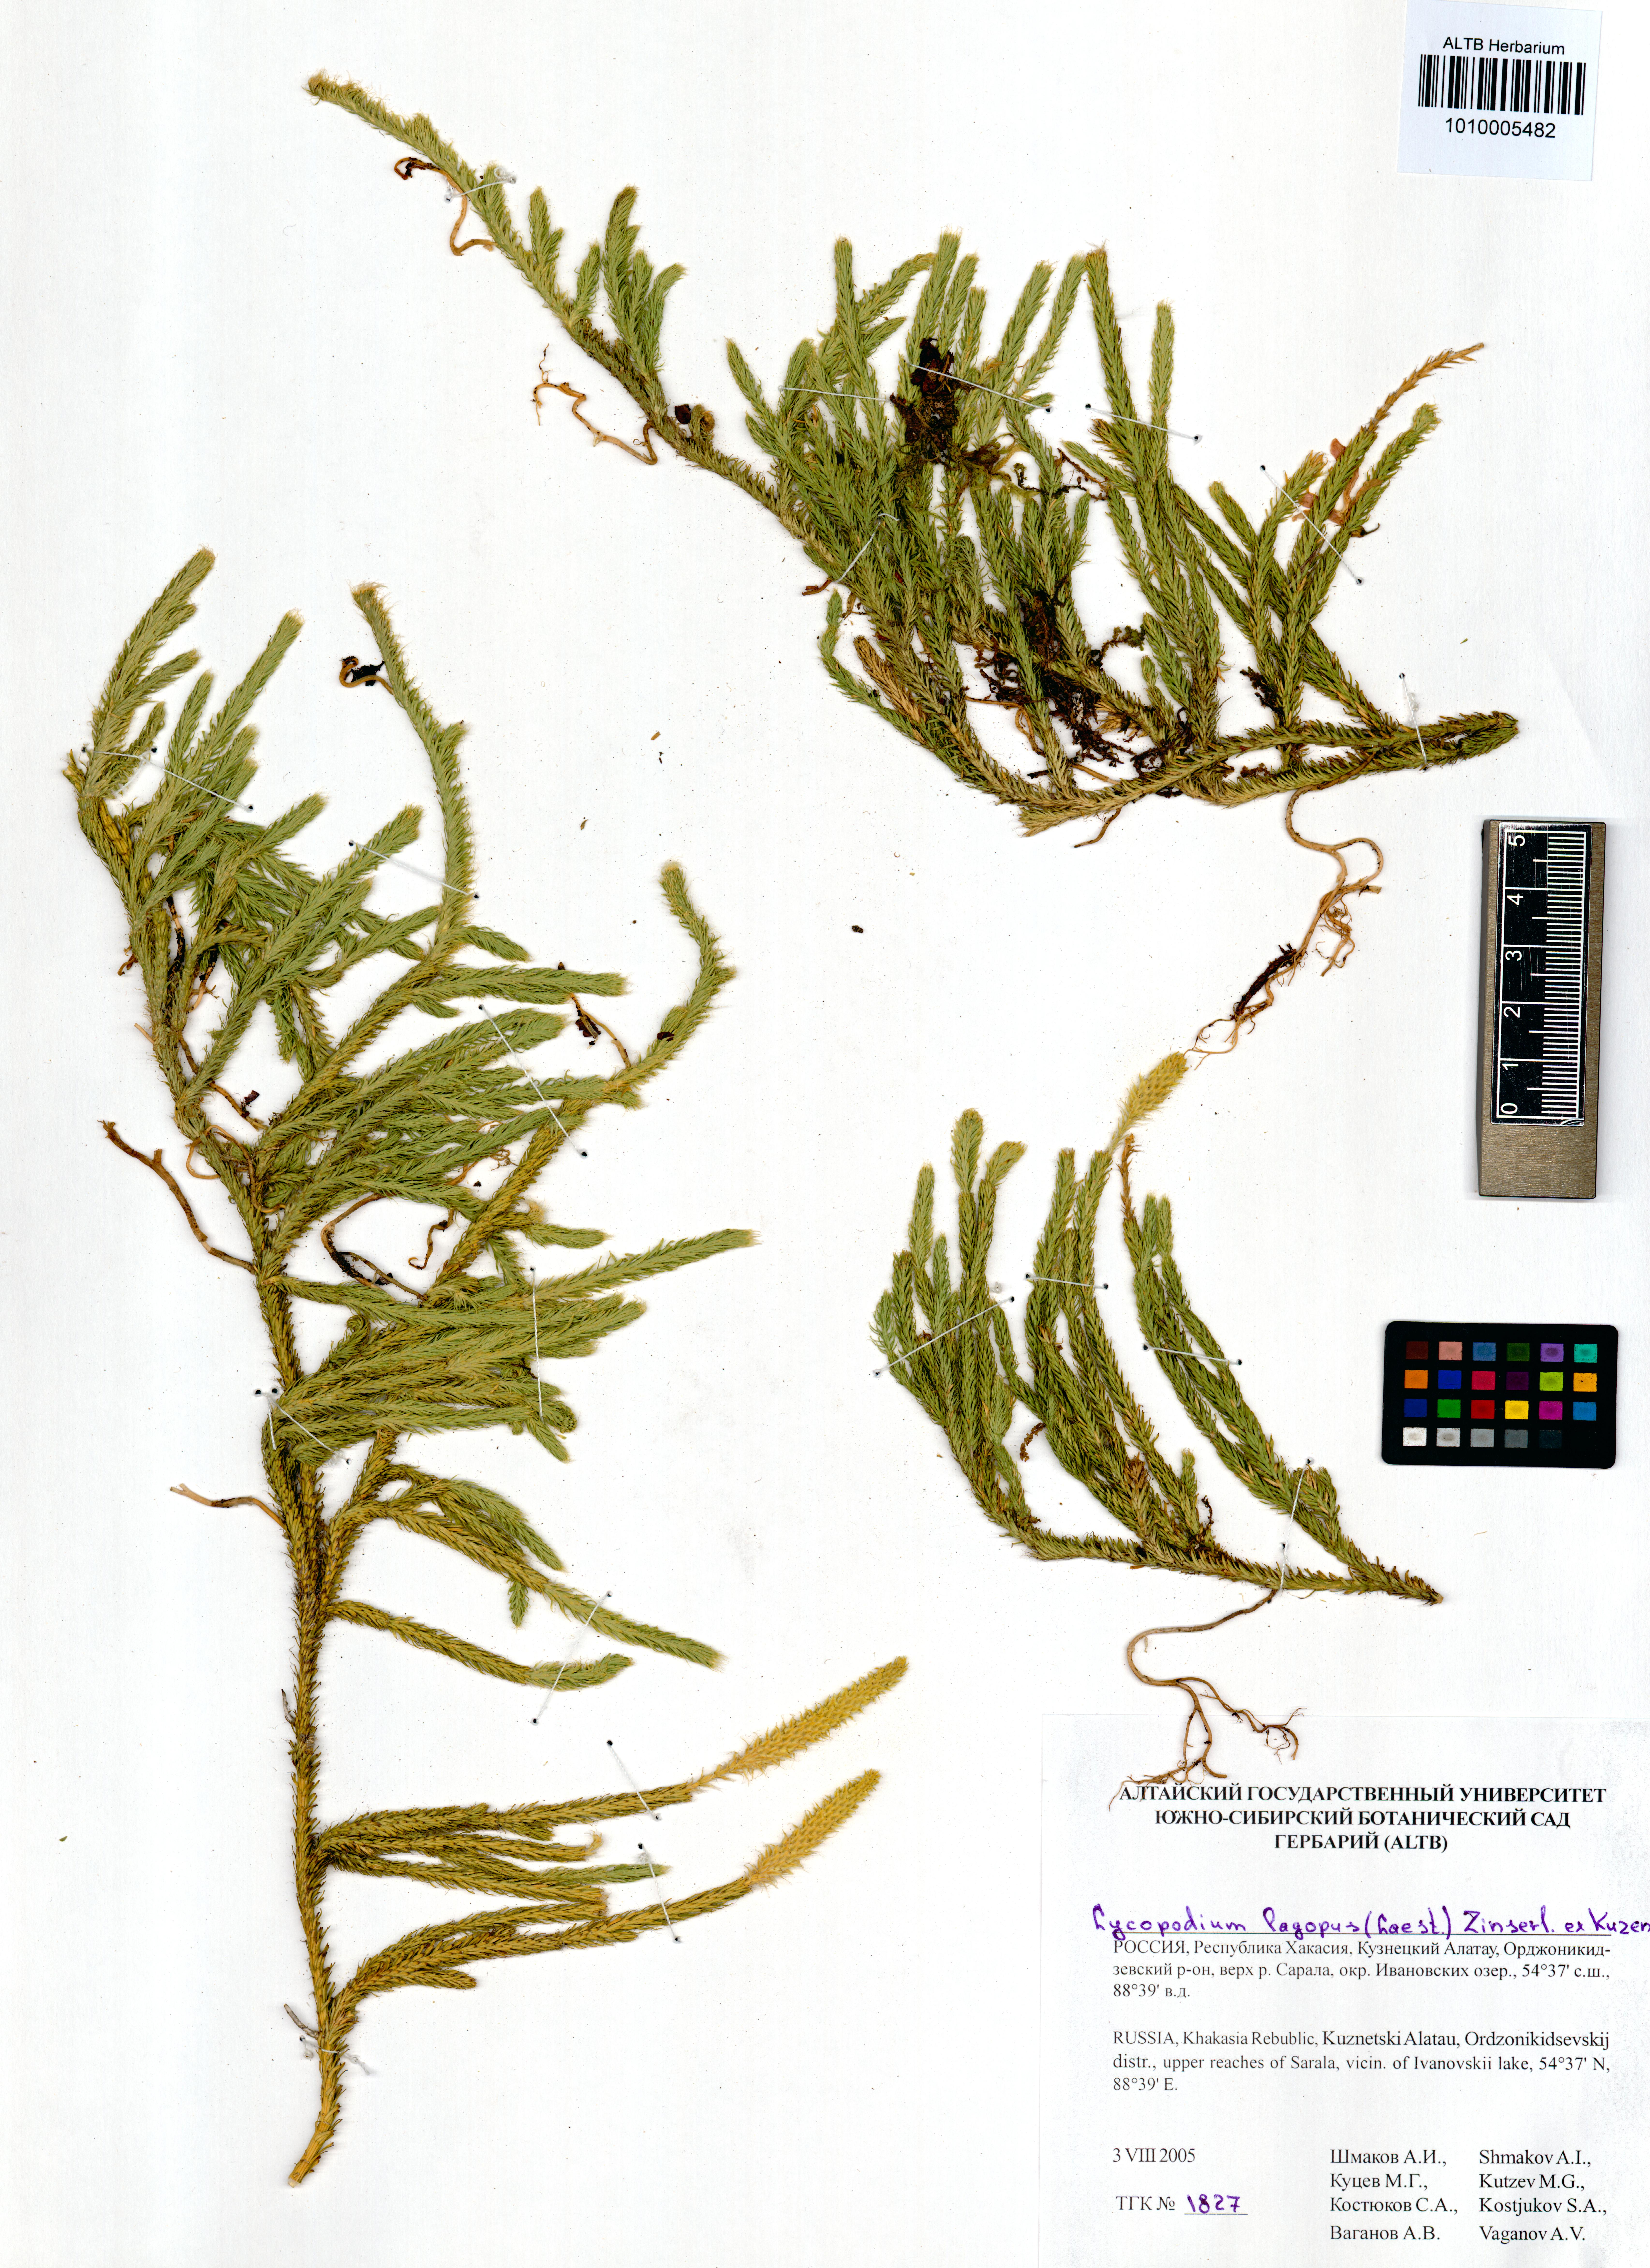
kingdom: Plantae
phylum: Tracheophyta
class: Lycopodiopsida
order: Lycopodiales
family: Lycopodiaceae
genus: Lycopodium
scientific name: Lycopodium lagopus
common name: One-cone clubmoss
